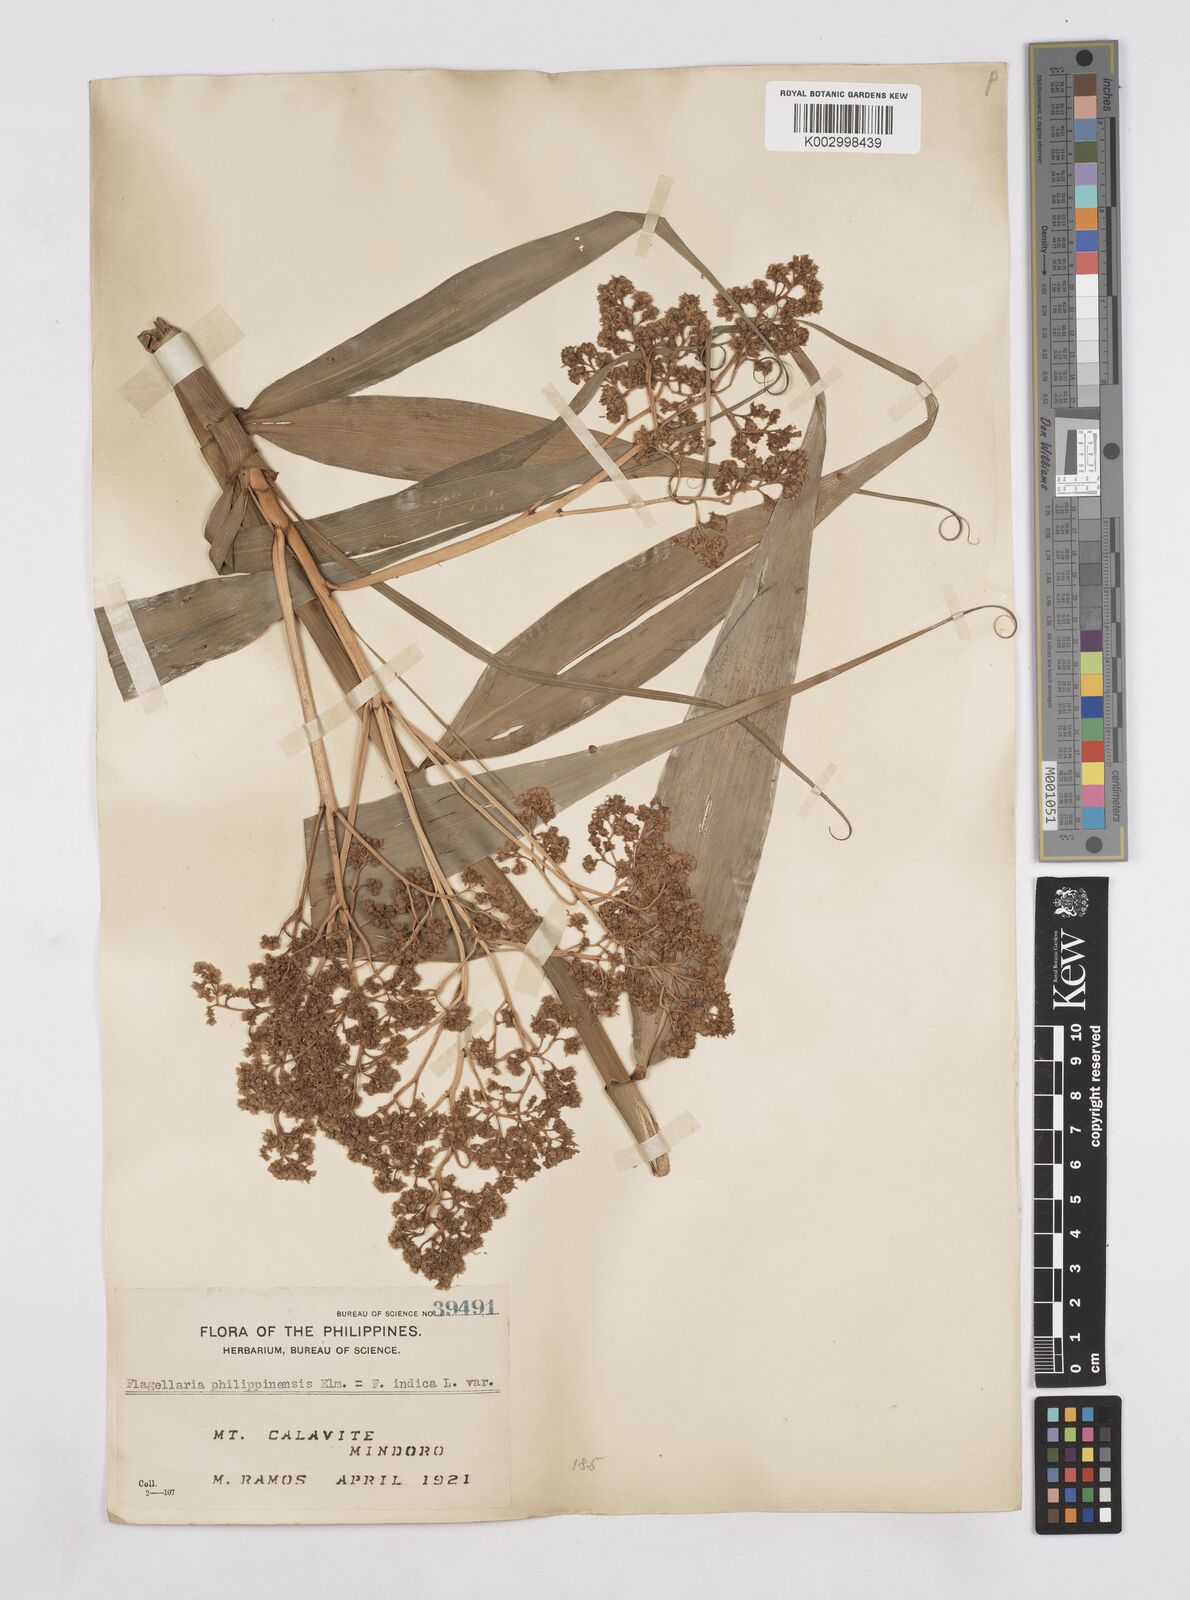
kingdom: Plantae
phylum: Tracheophyta
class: Liliopsida
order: Poales
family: Flagellariaceae
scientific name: Flagellariaceae
